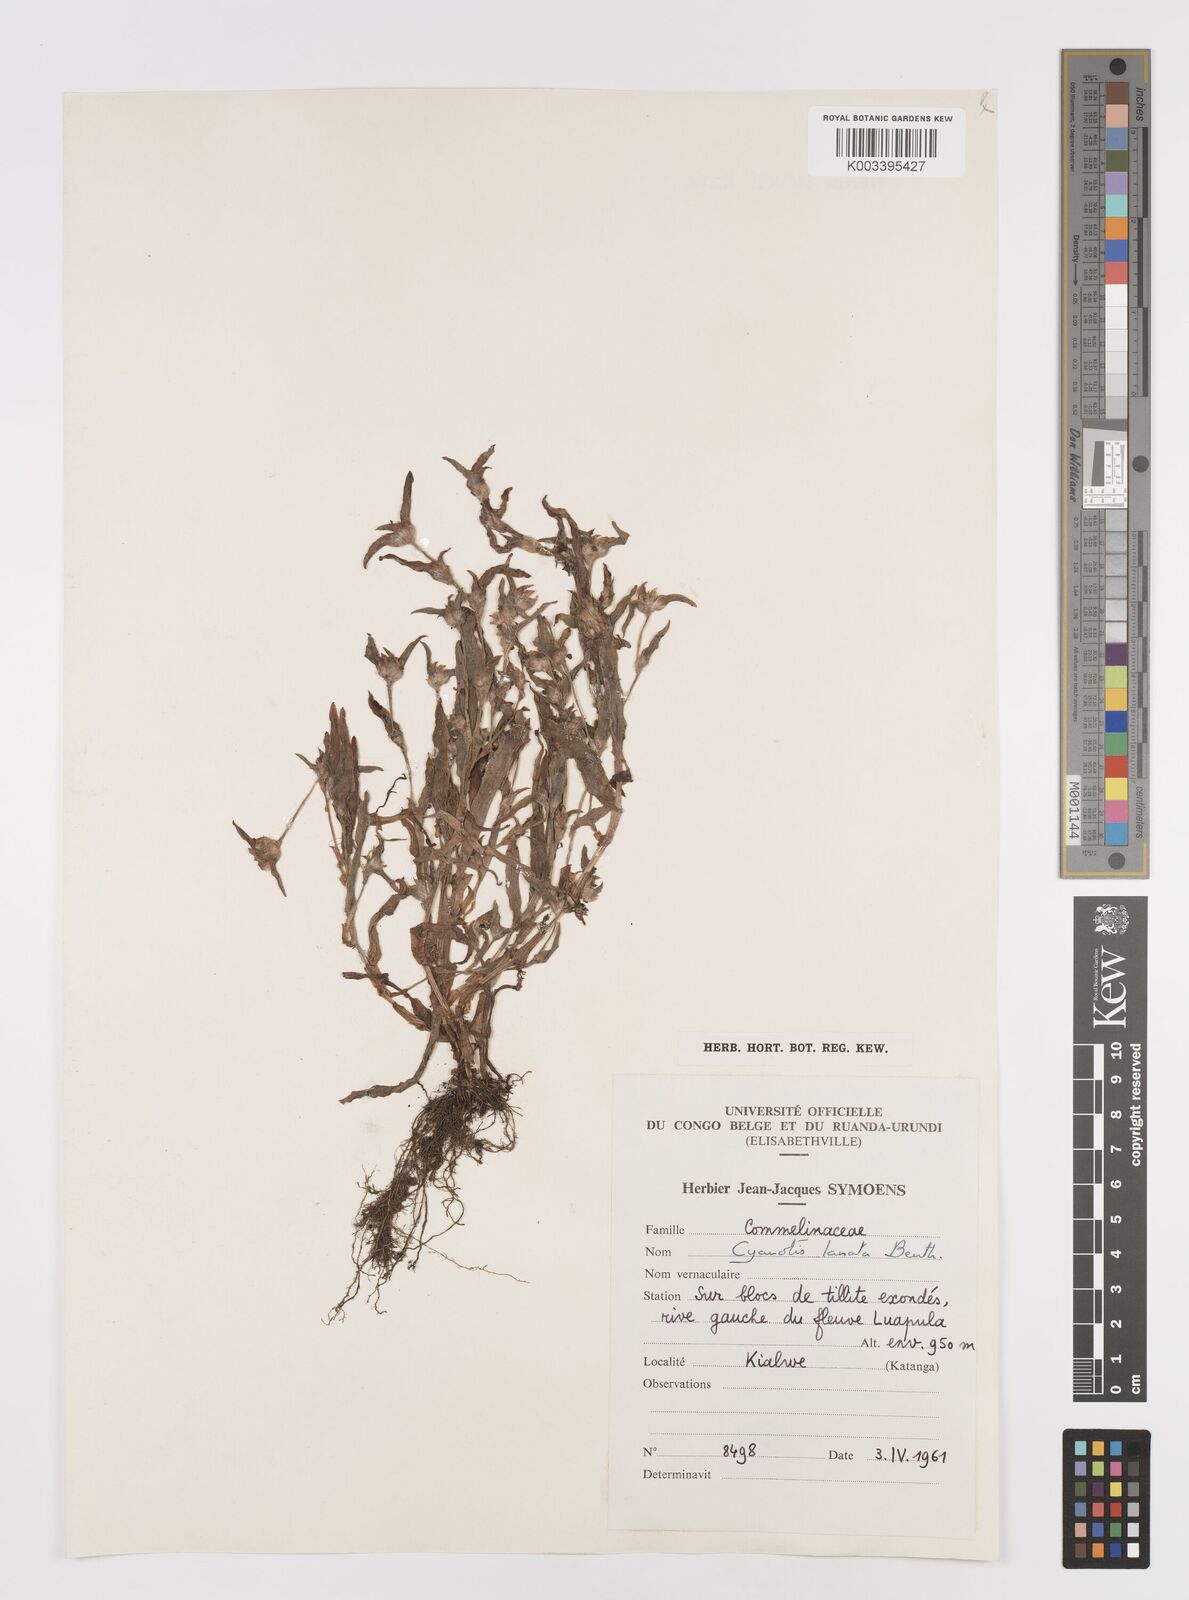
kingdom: Plantae
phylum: Tracheophyta
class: Liliopsida
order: Commelinales
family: Commelinaceae
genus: Cyanotis
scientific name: Cyanotis lanata
